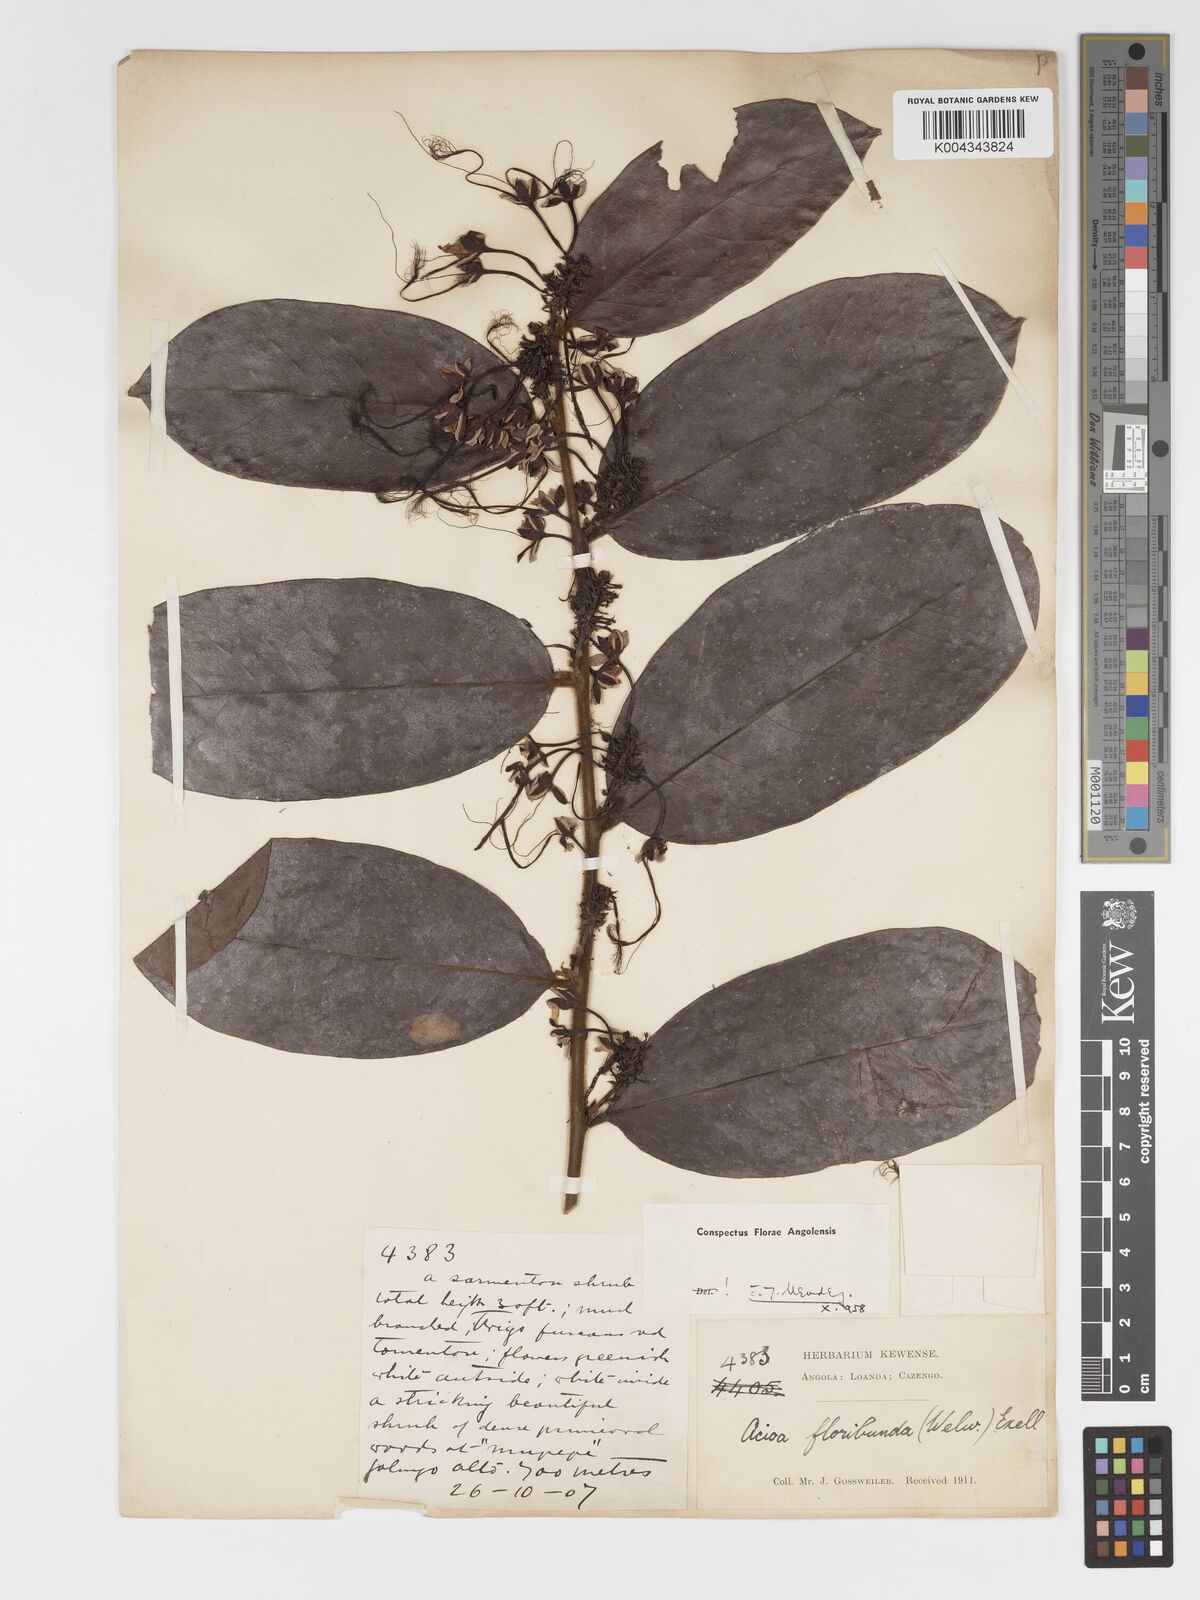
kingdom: Plantae
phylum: Tracheophyta
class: Magnoliopsida
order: Malpighiales
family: Chrysobalanaceae
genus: Dactyladenia
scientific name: Dactyladenia floribunda
